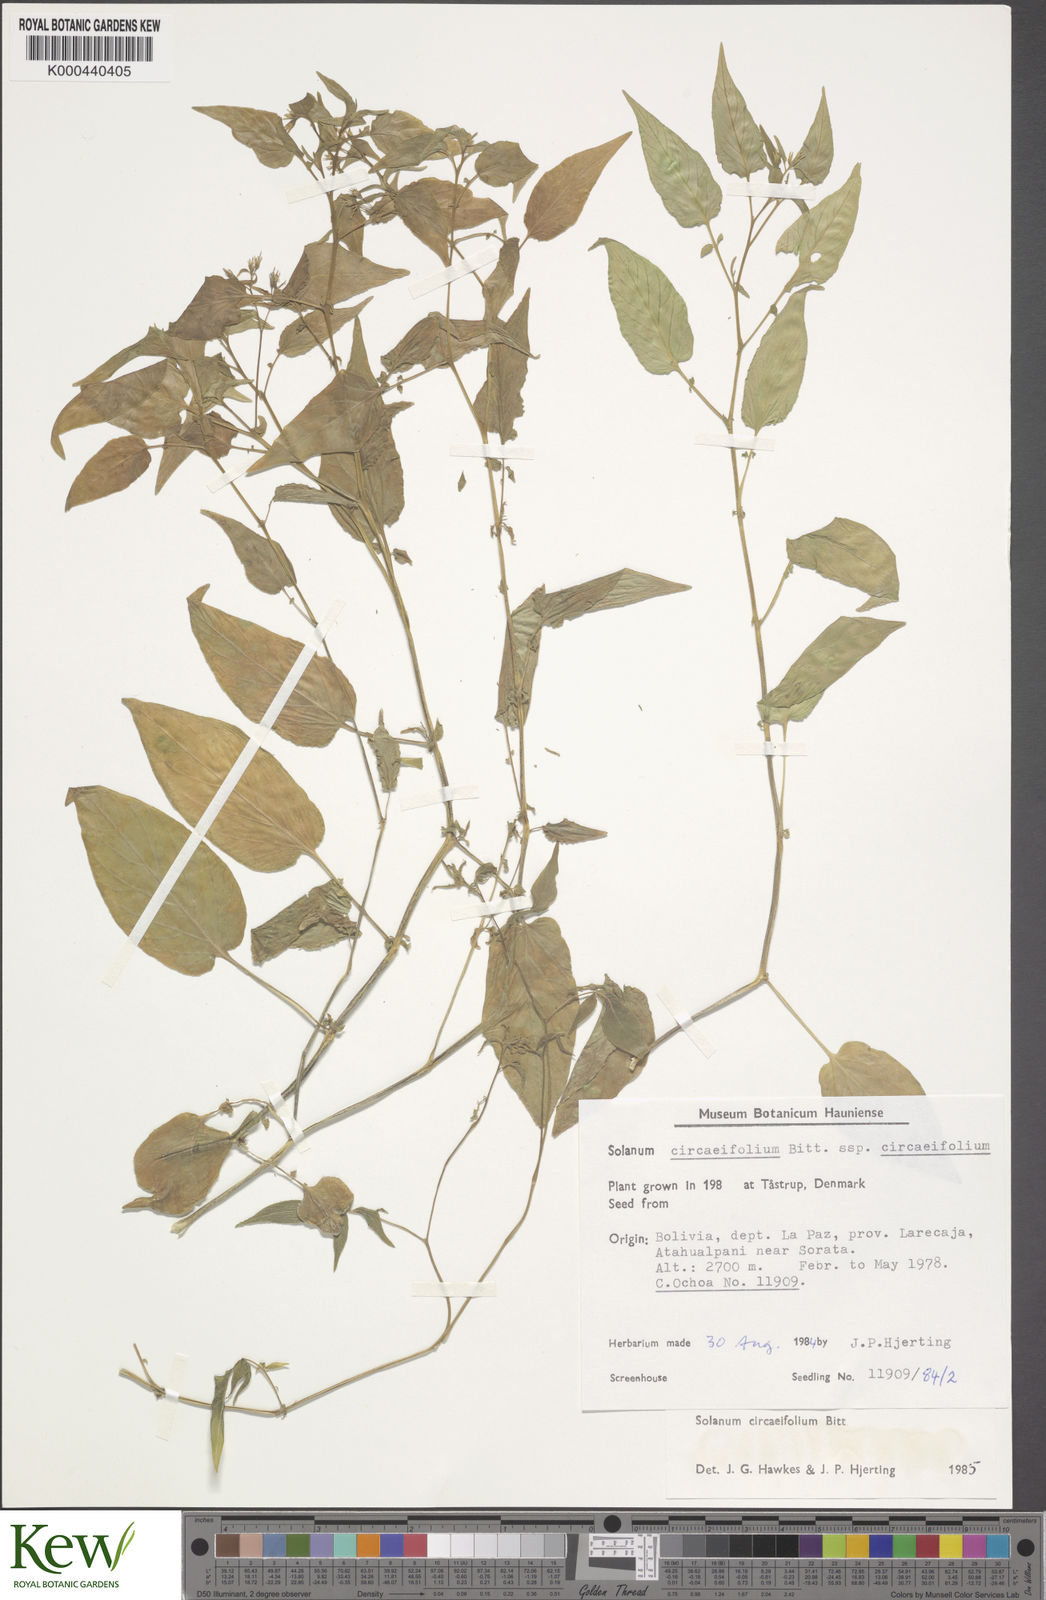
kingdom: Plantae
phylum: Tracheophyta
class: Magnoliopsida
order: Solanales
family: Solanaceae
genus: Solanum
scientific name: Solanum stipuloideum
